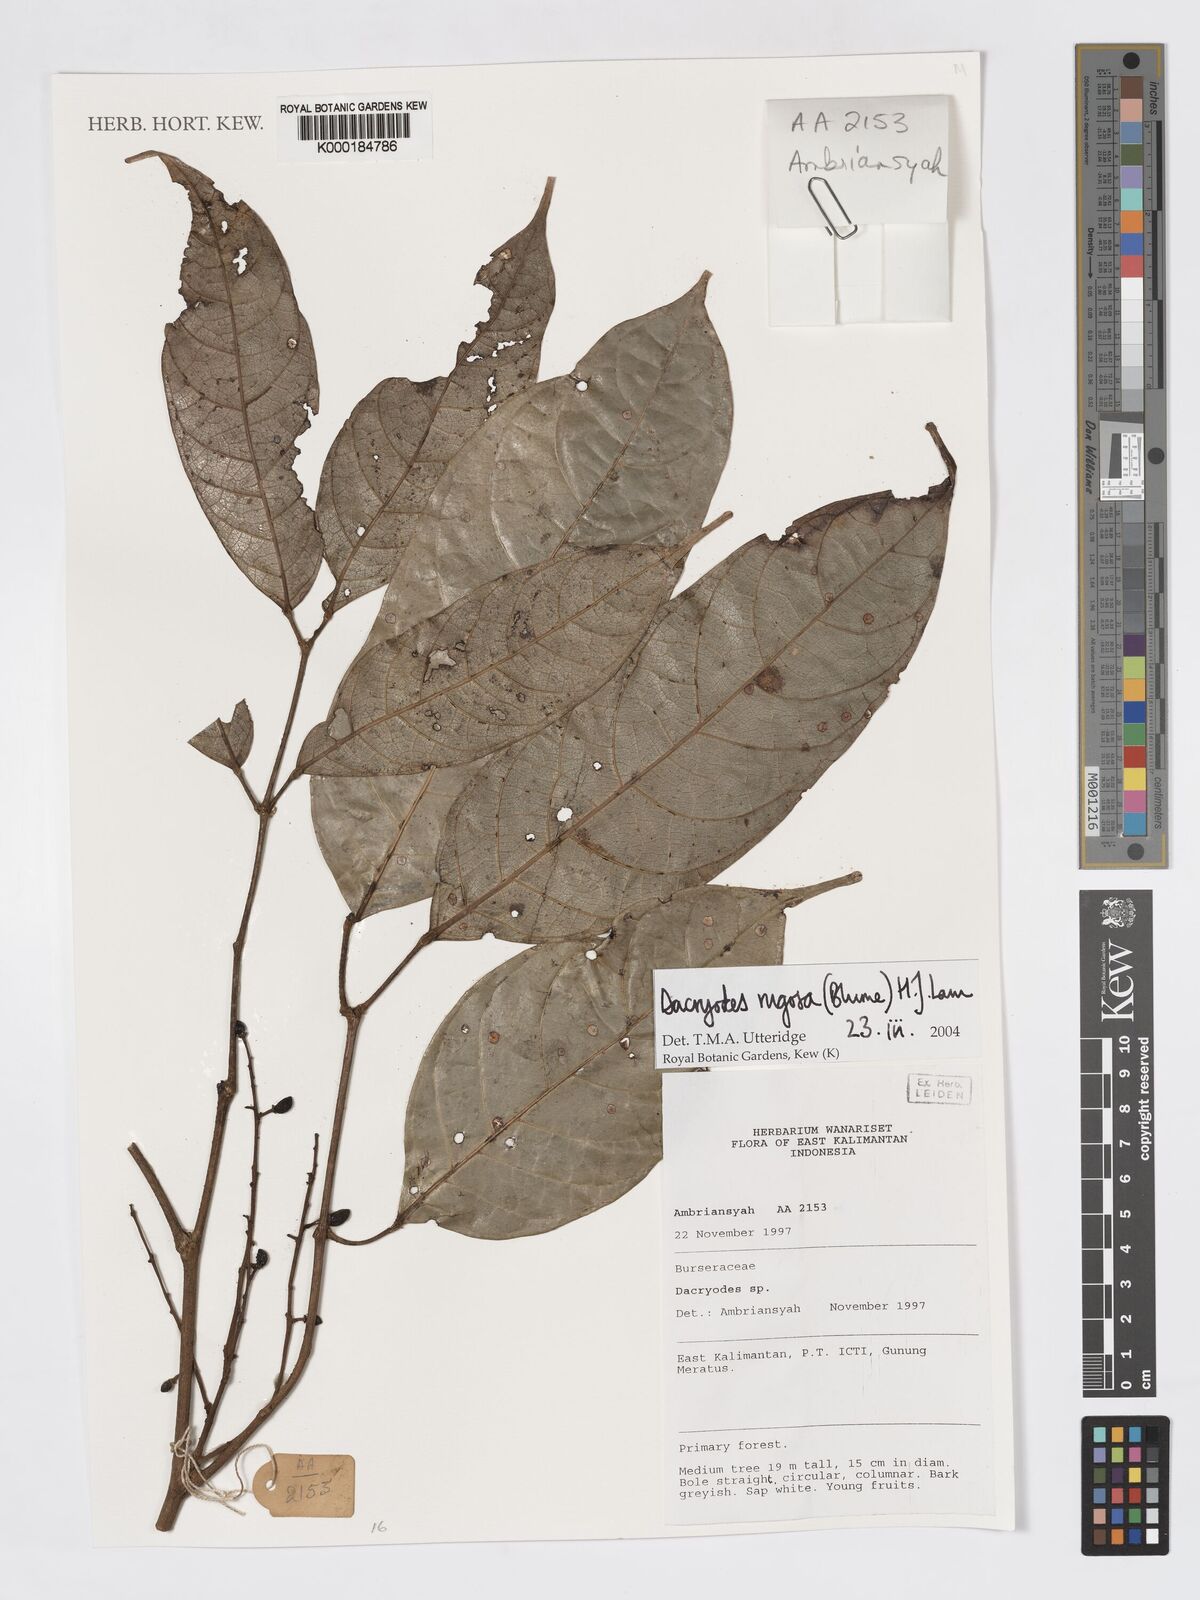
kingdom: Plantae
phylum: Tracheophyta
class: Magnoliopsida
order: Sapindales
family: Burseraceae
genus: Dacryodes
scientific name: Dacryodes rugosa
